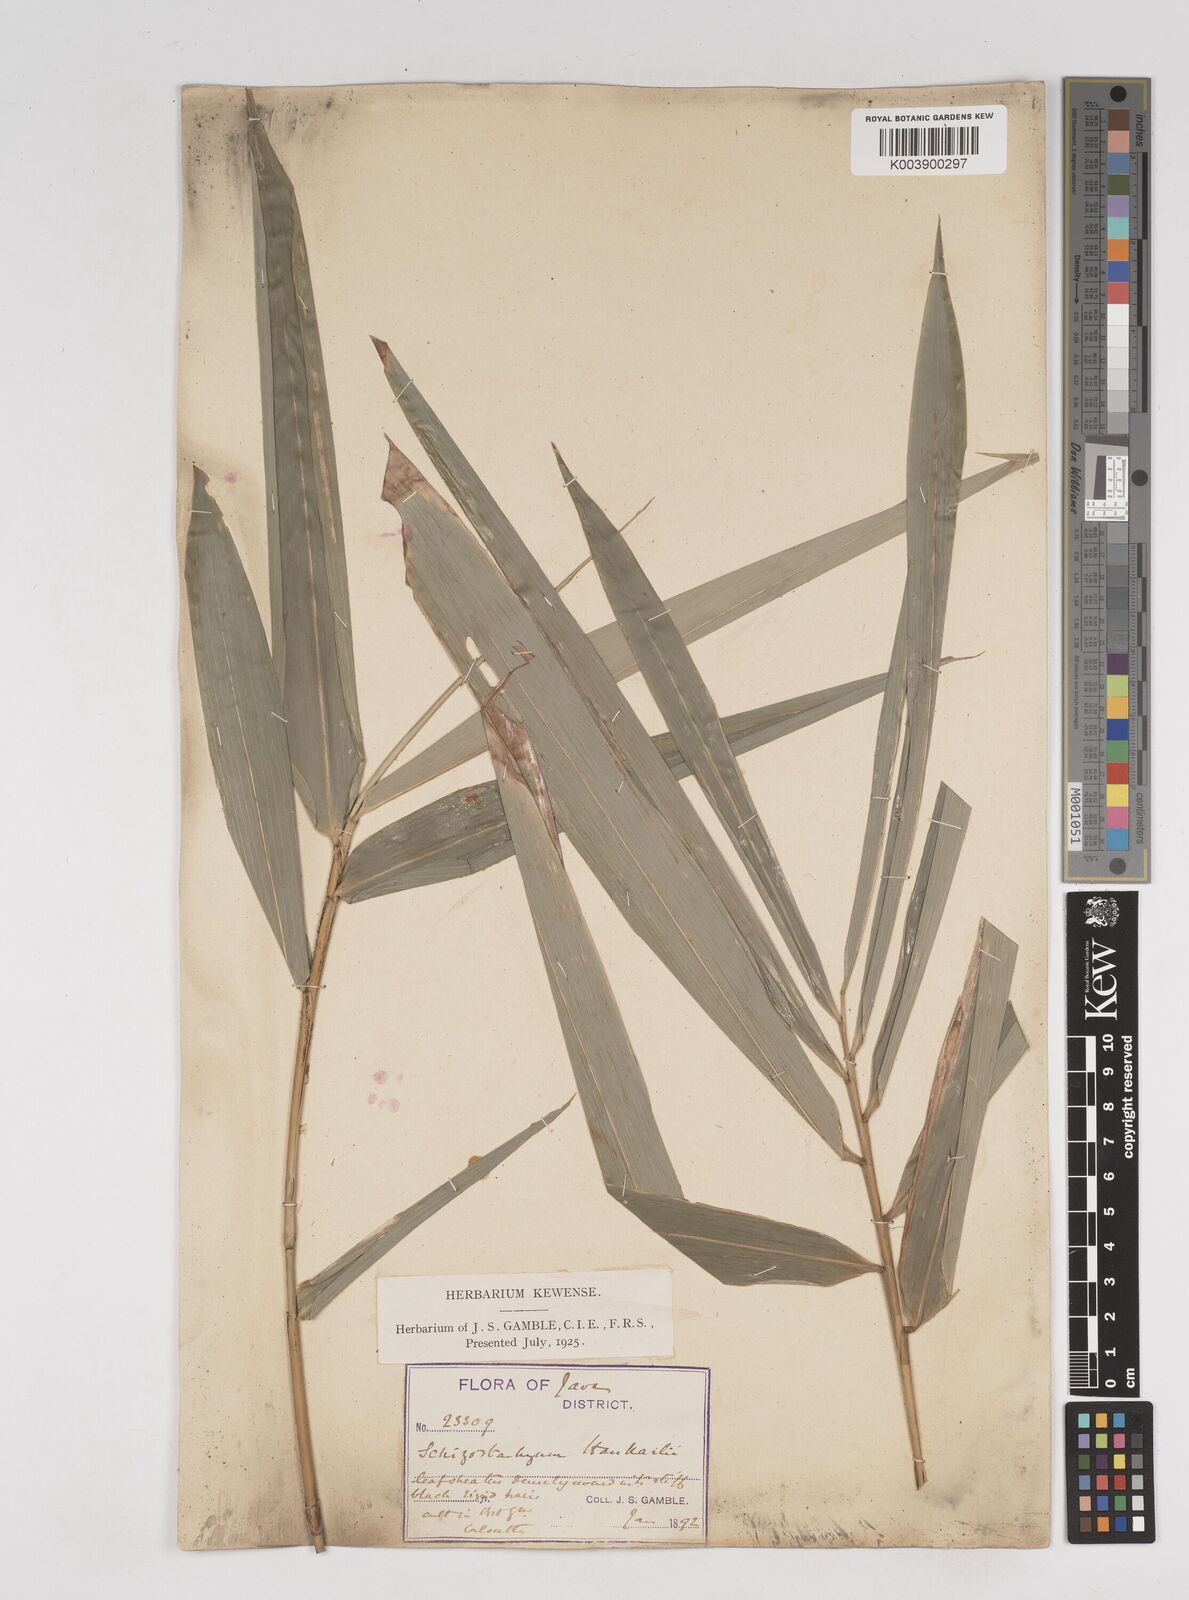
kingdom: Plantae
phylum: Tracheophyta
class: Liliopsida
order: Poales
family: Poaceae
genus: Gigantochloa
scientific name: Gigantochloa hasskarliana
